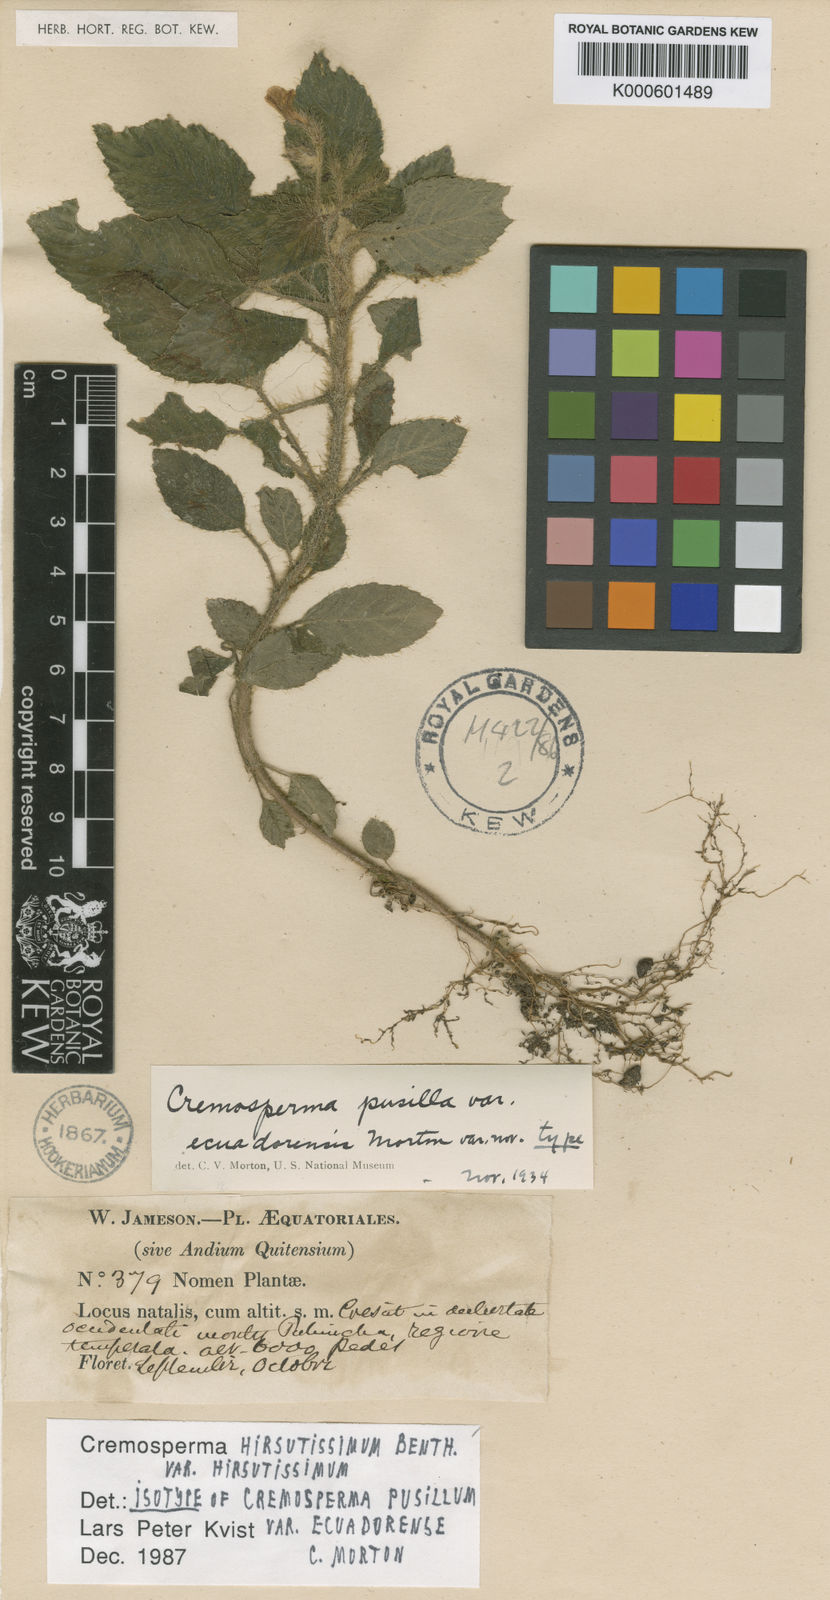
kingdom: Plantae
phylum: Tracheophyta
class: Magnoliopsida
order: Lamiales
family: Gesneriaceae
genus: Cremosperma
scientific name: Cremosperma hirsutissimum
